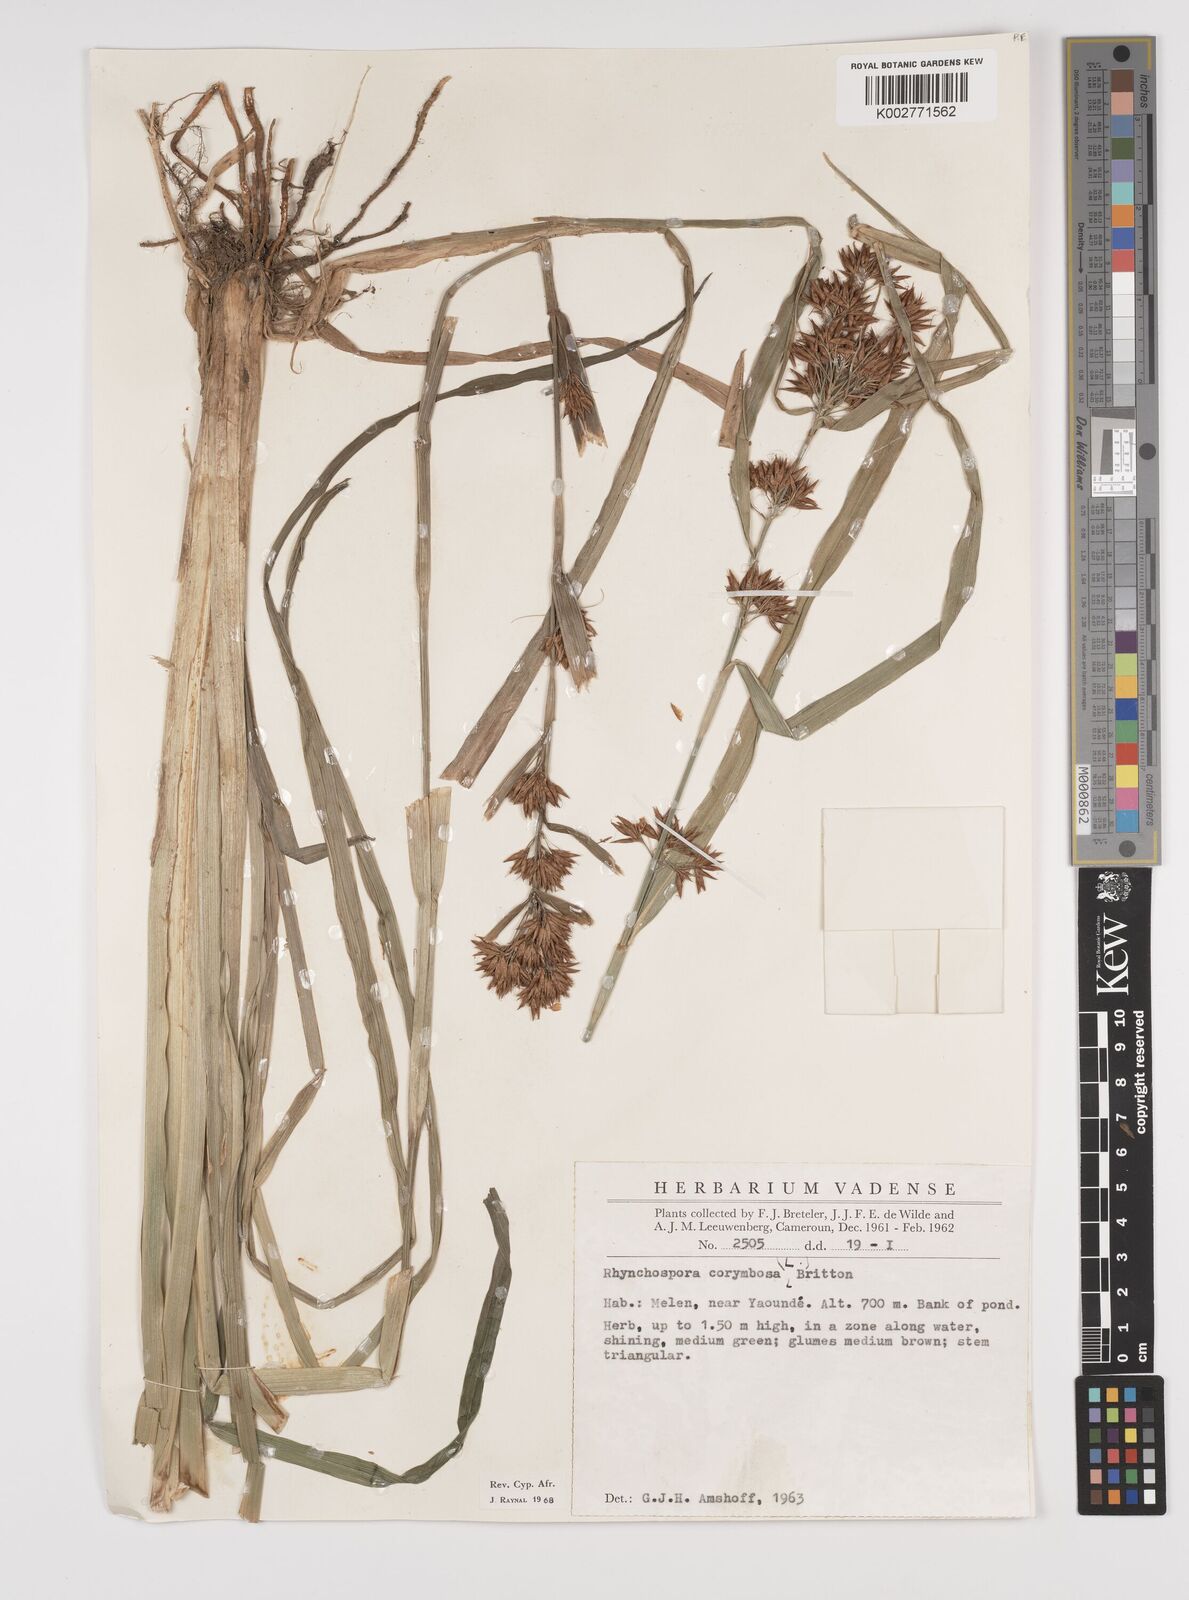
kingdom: Plantae
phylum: Tracheophyta
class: Liliopsida
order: Poales
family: Cyperaceae
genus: Rhynchospora
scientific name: Rhynchospora corymbosa
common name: Golden beak sedge
